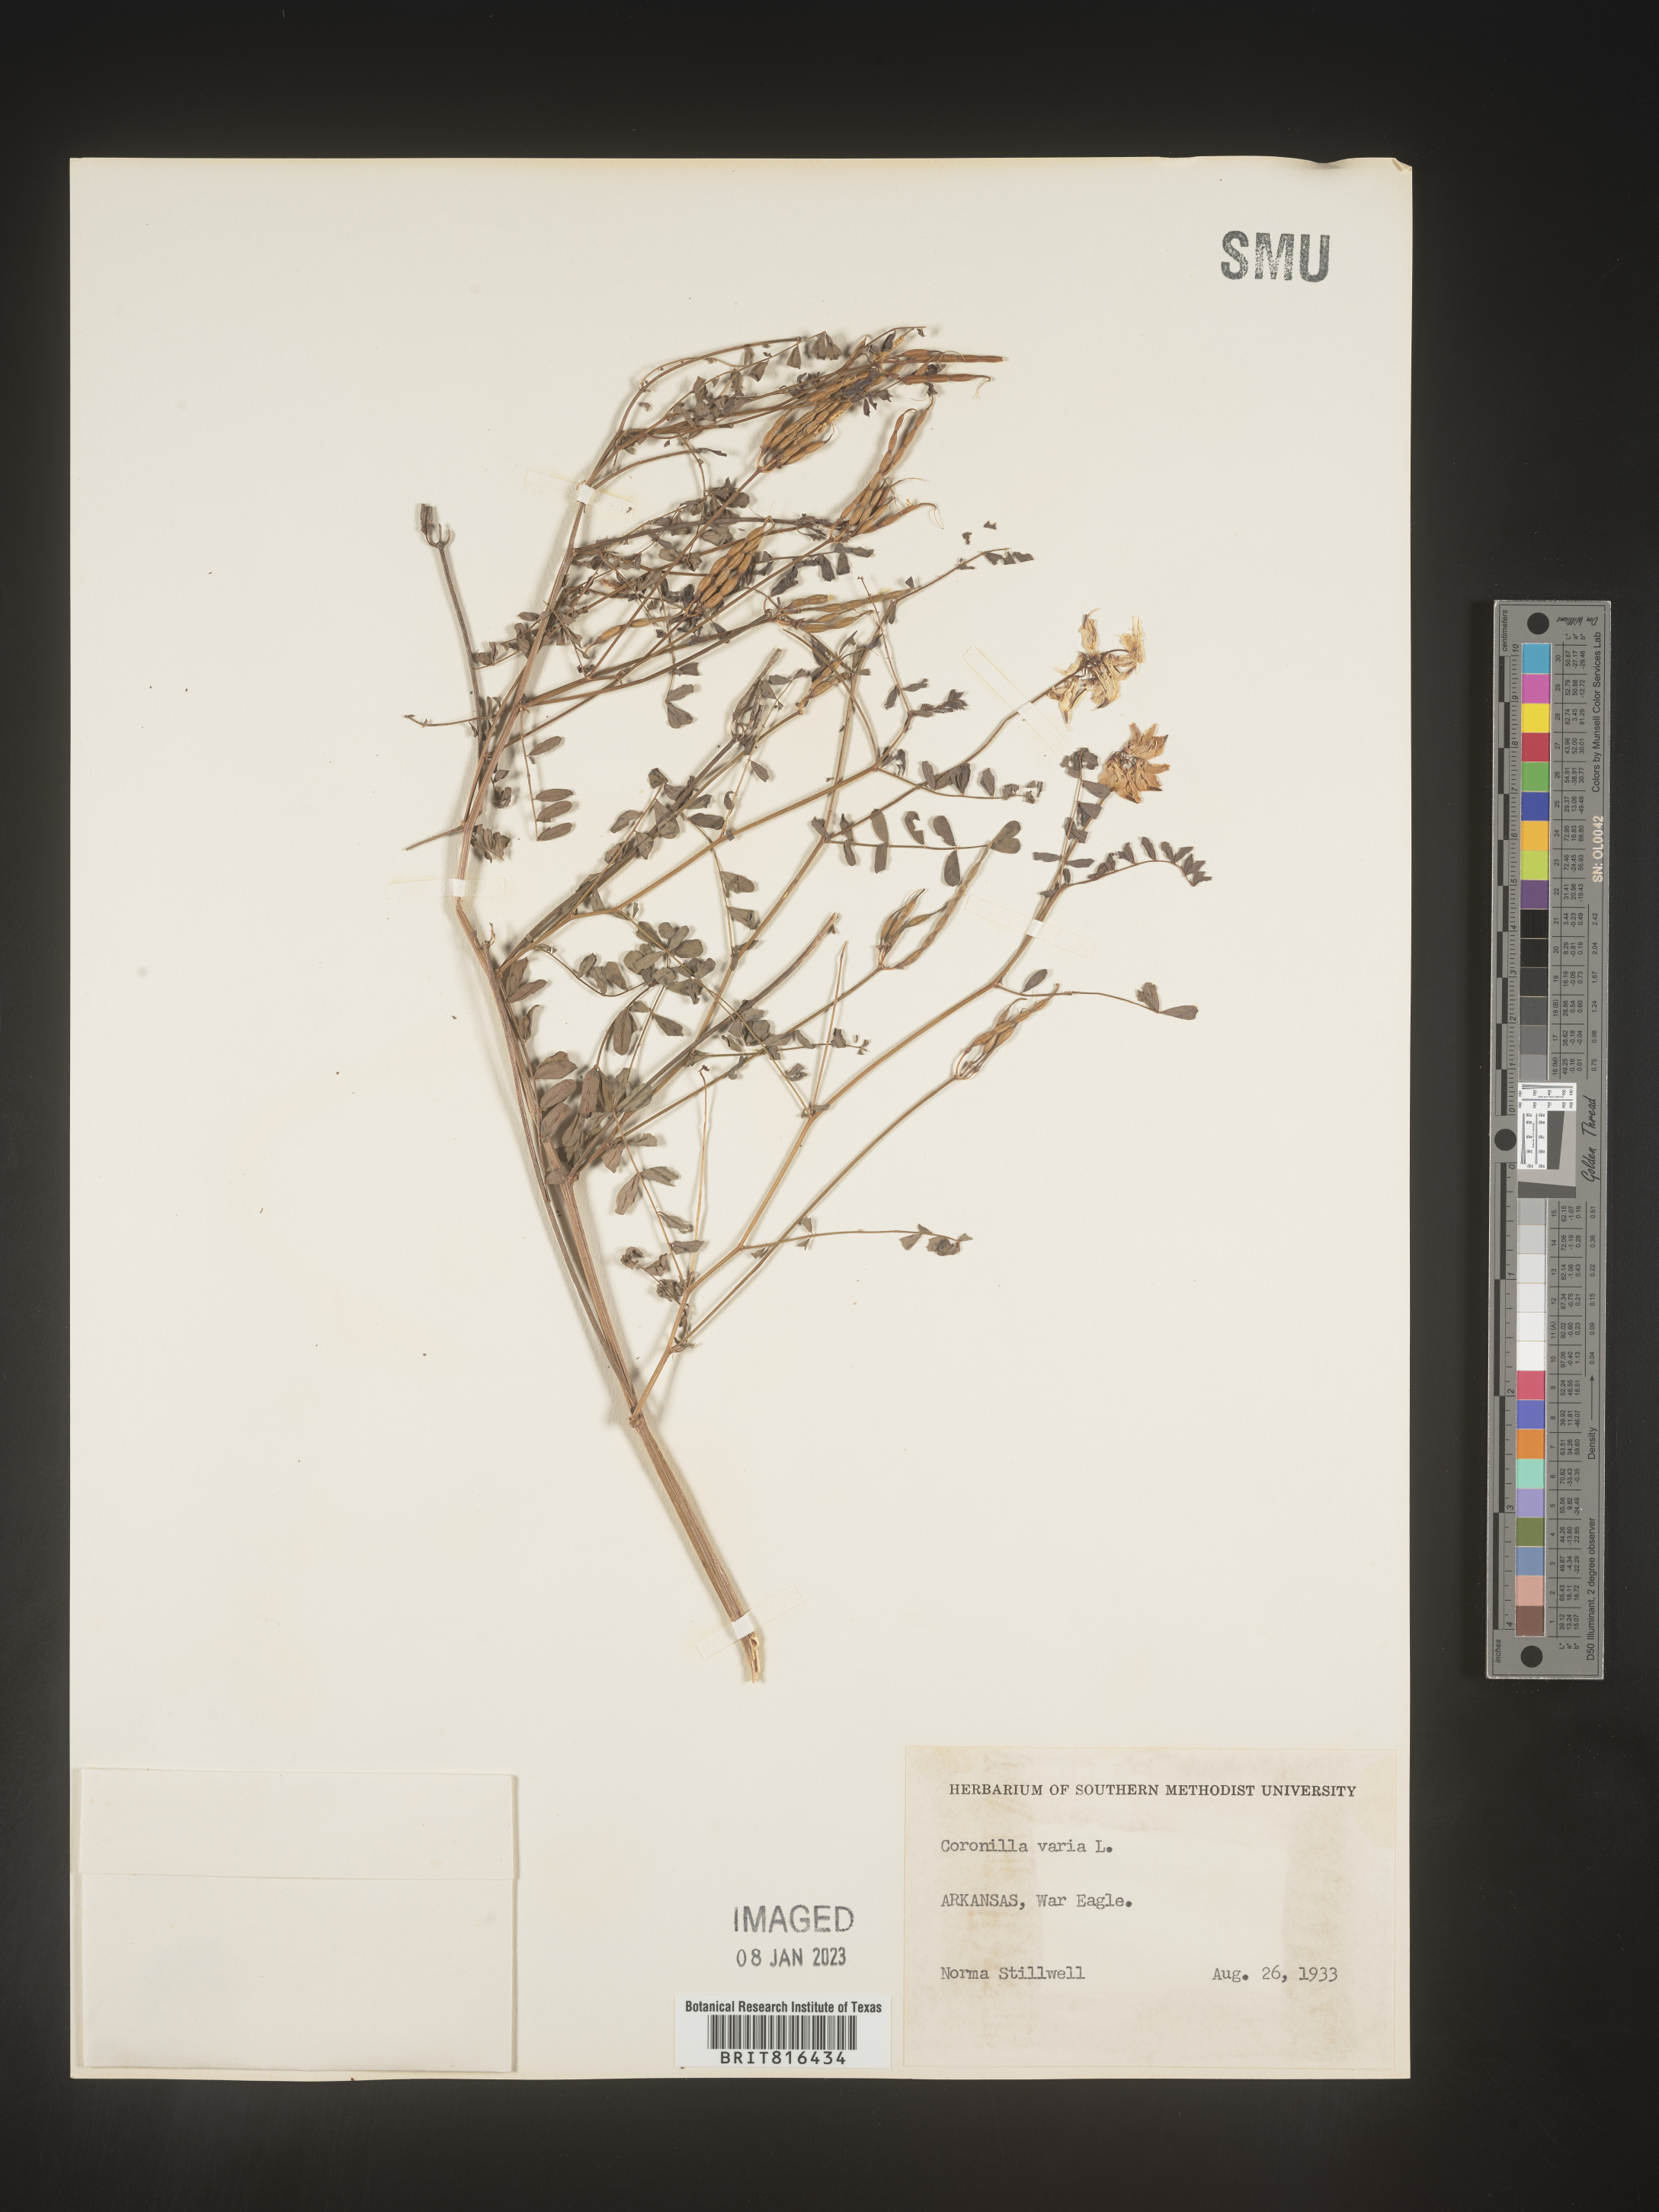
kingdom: Plantae
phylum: Tracheophyta
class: Magnoliopsida
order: Fabales
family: Fabaceae
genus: Coronilla
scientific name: Coronilla
